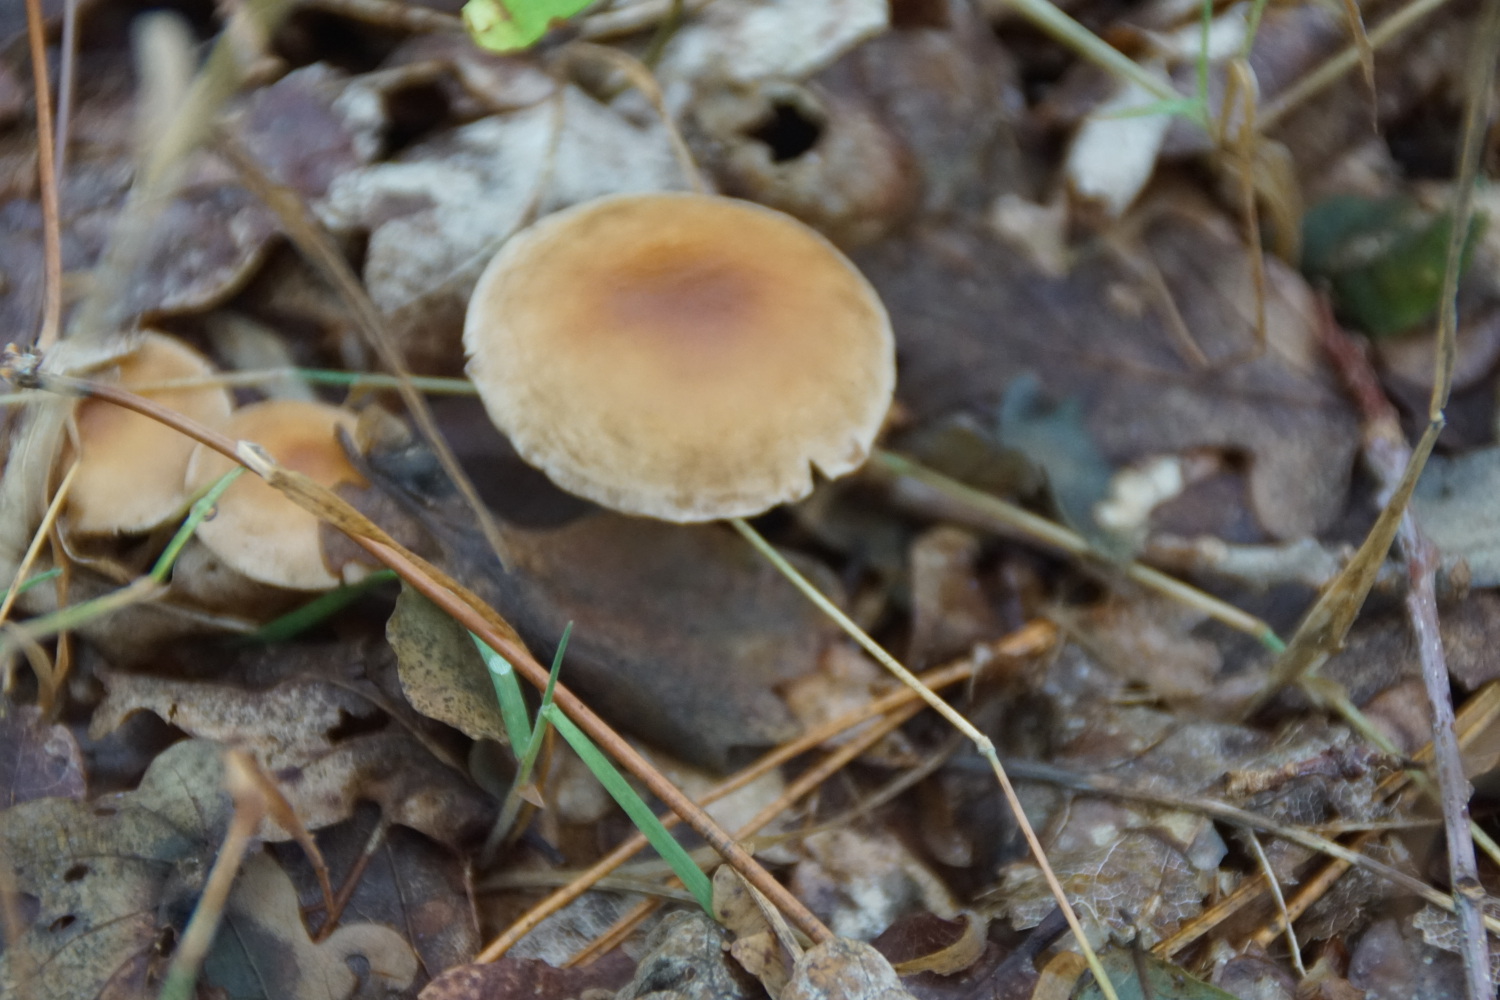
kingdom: Fungi
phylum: Basidiomycota
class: Agaricomycetes
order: Agaricales
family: Omphalotaceae
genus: Collybiopsis
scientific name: Collybiopsis peronata
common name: bestøvlet fladhat
